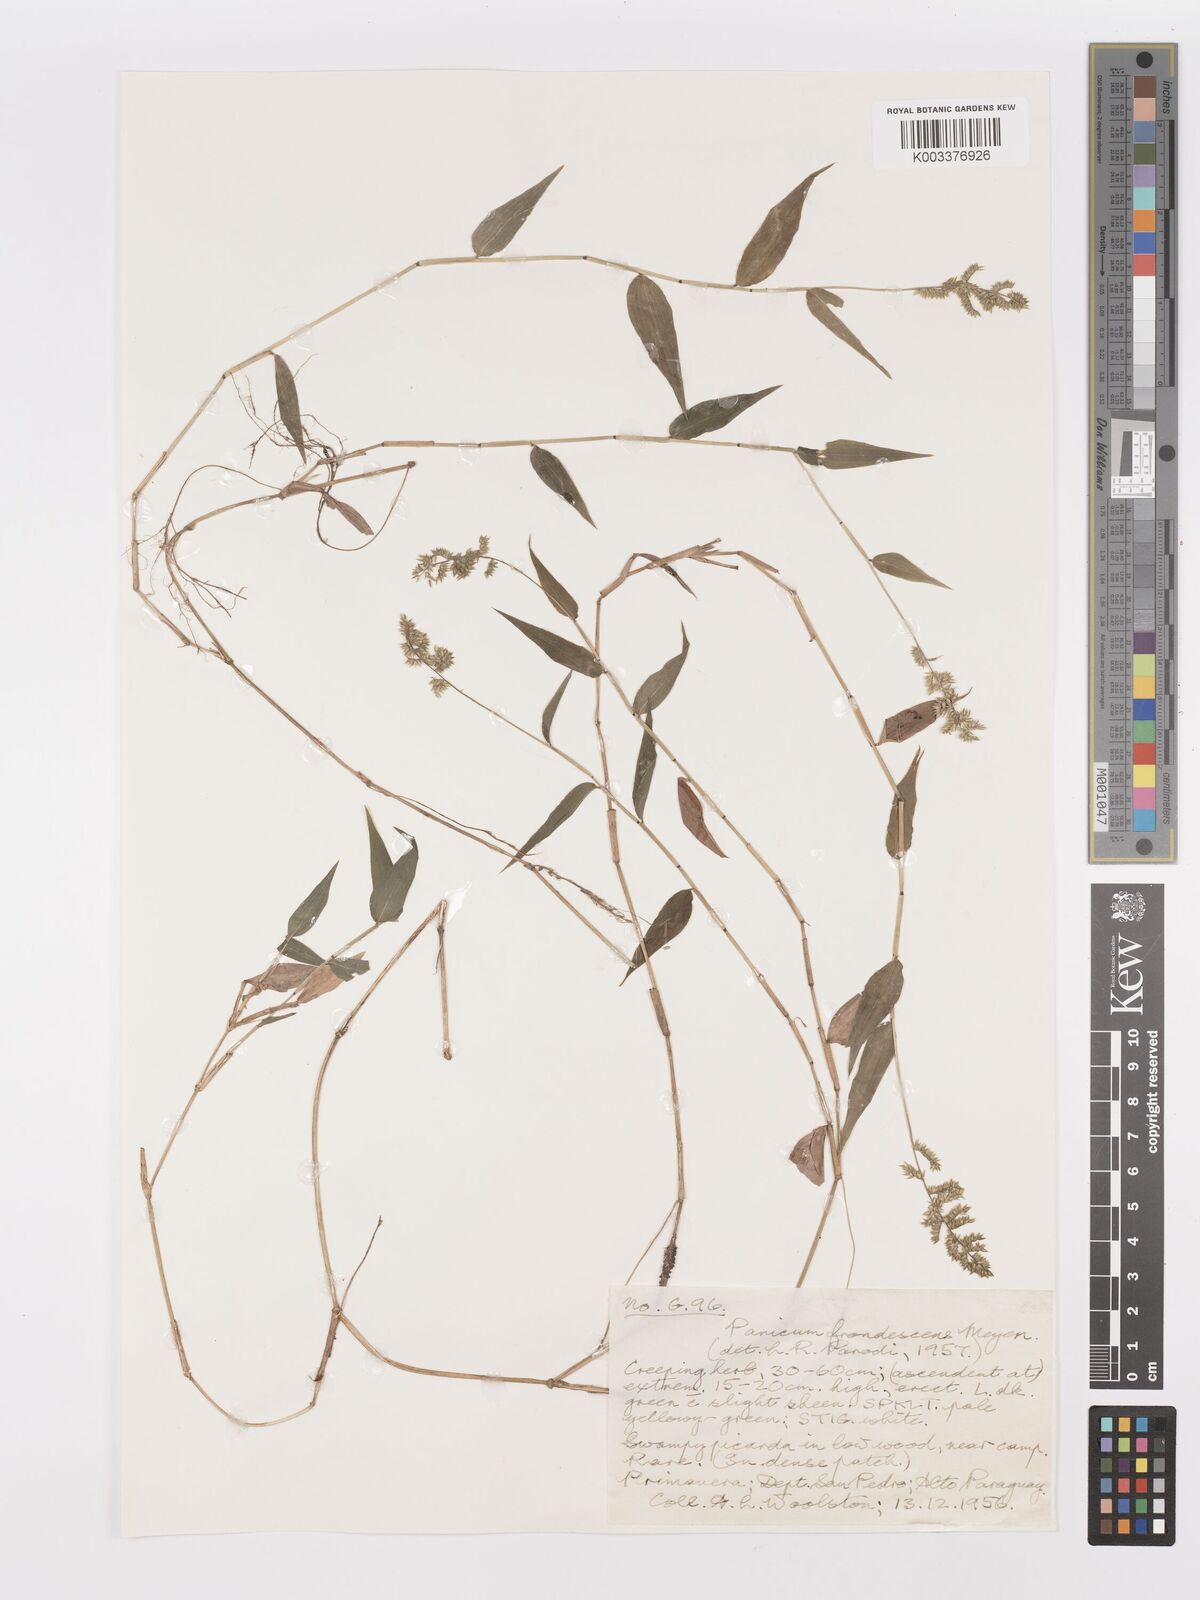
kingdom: Plantae
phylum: Tracheophyta
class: Liliopsida
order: Poales
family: Poaceae
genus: Ocellochloa
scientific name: Ocellochloa stolonifera
